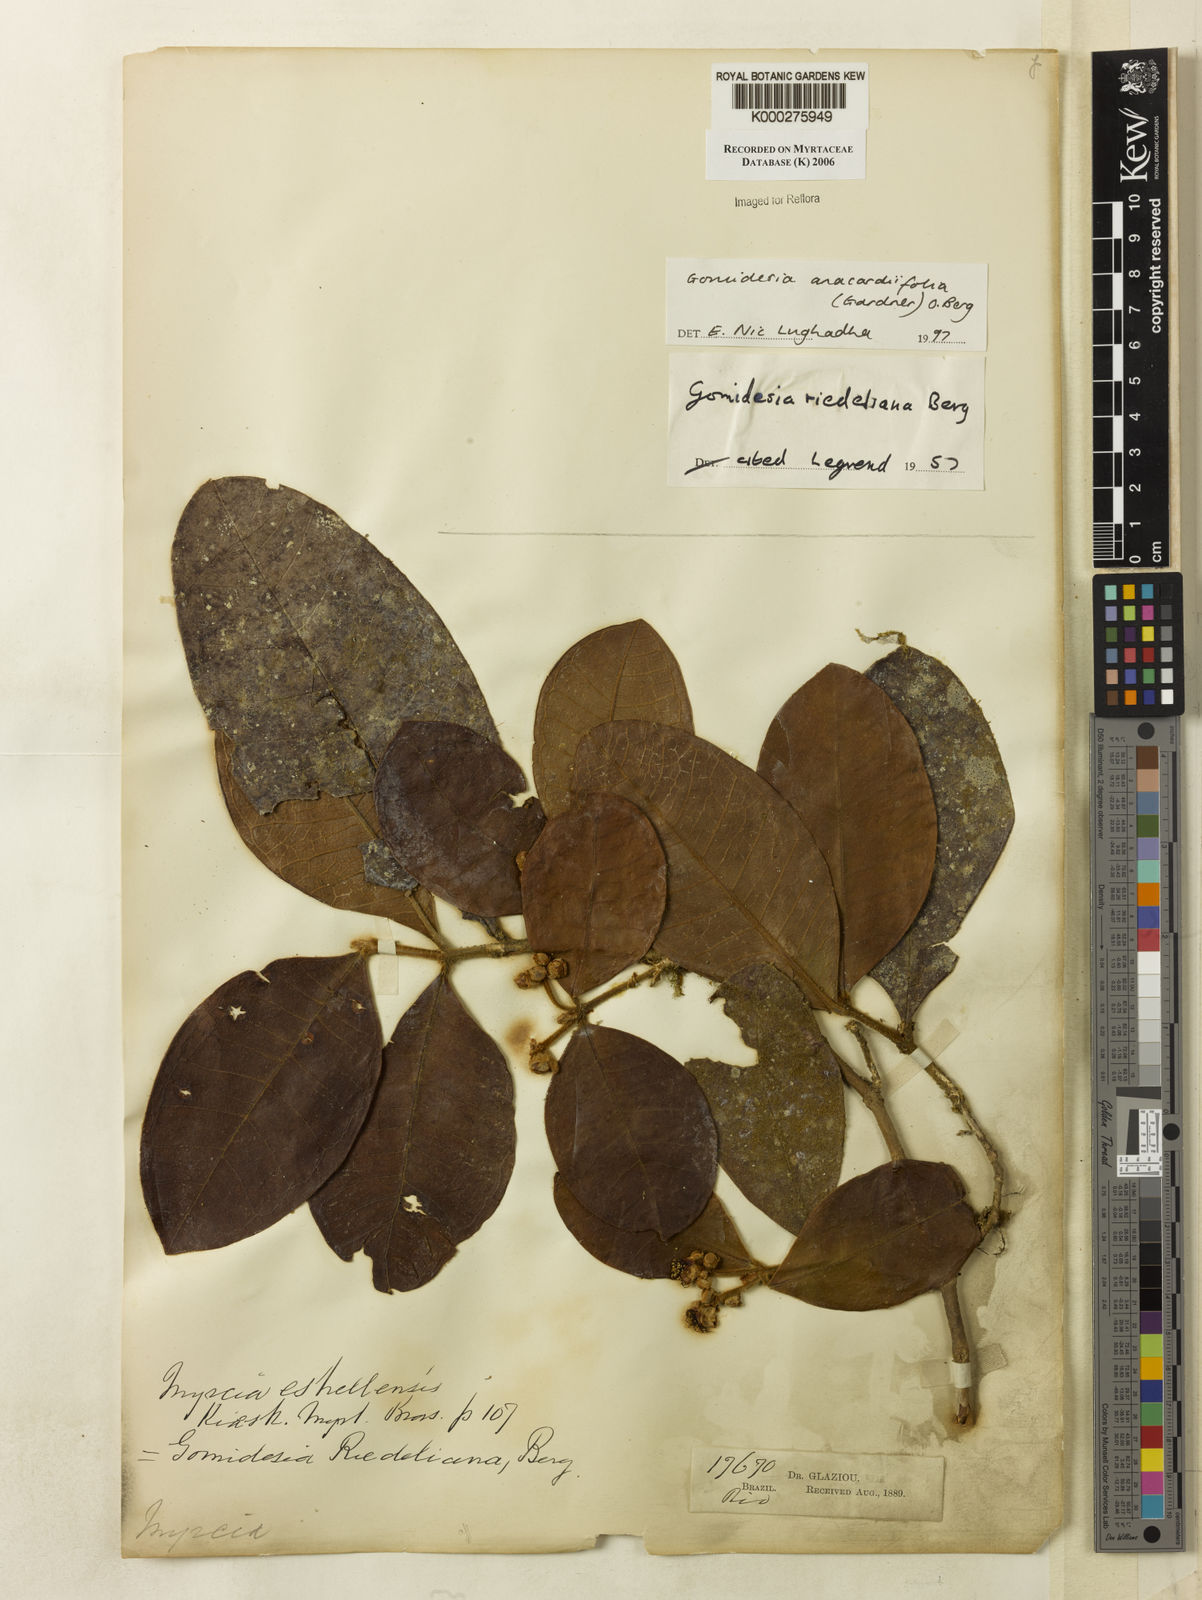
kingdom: Plantae
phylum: Tracheophyta
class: Magnoliopsida
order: Myrtales
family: Myrtaceae
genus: Myrcia
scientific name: Myrcia anacardiifolia
